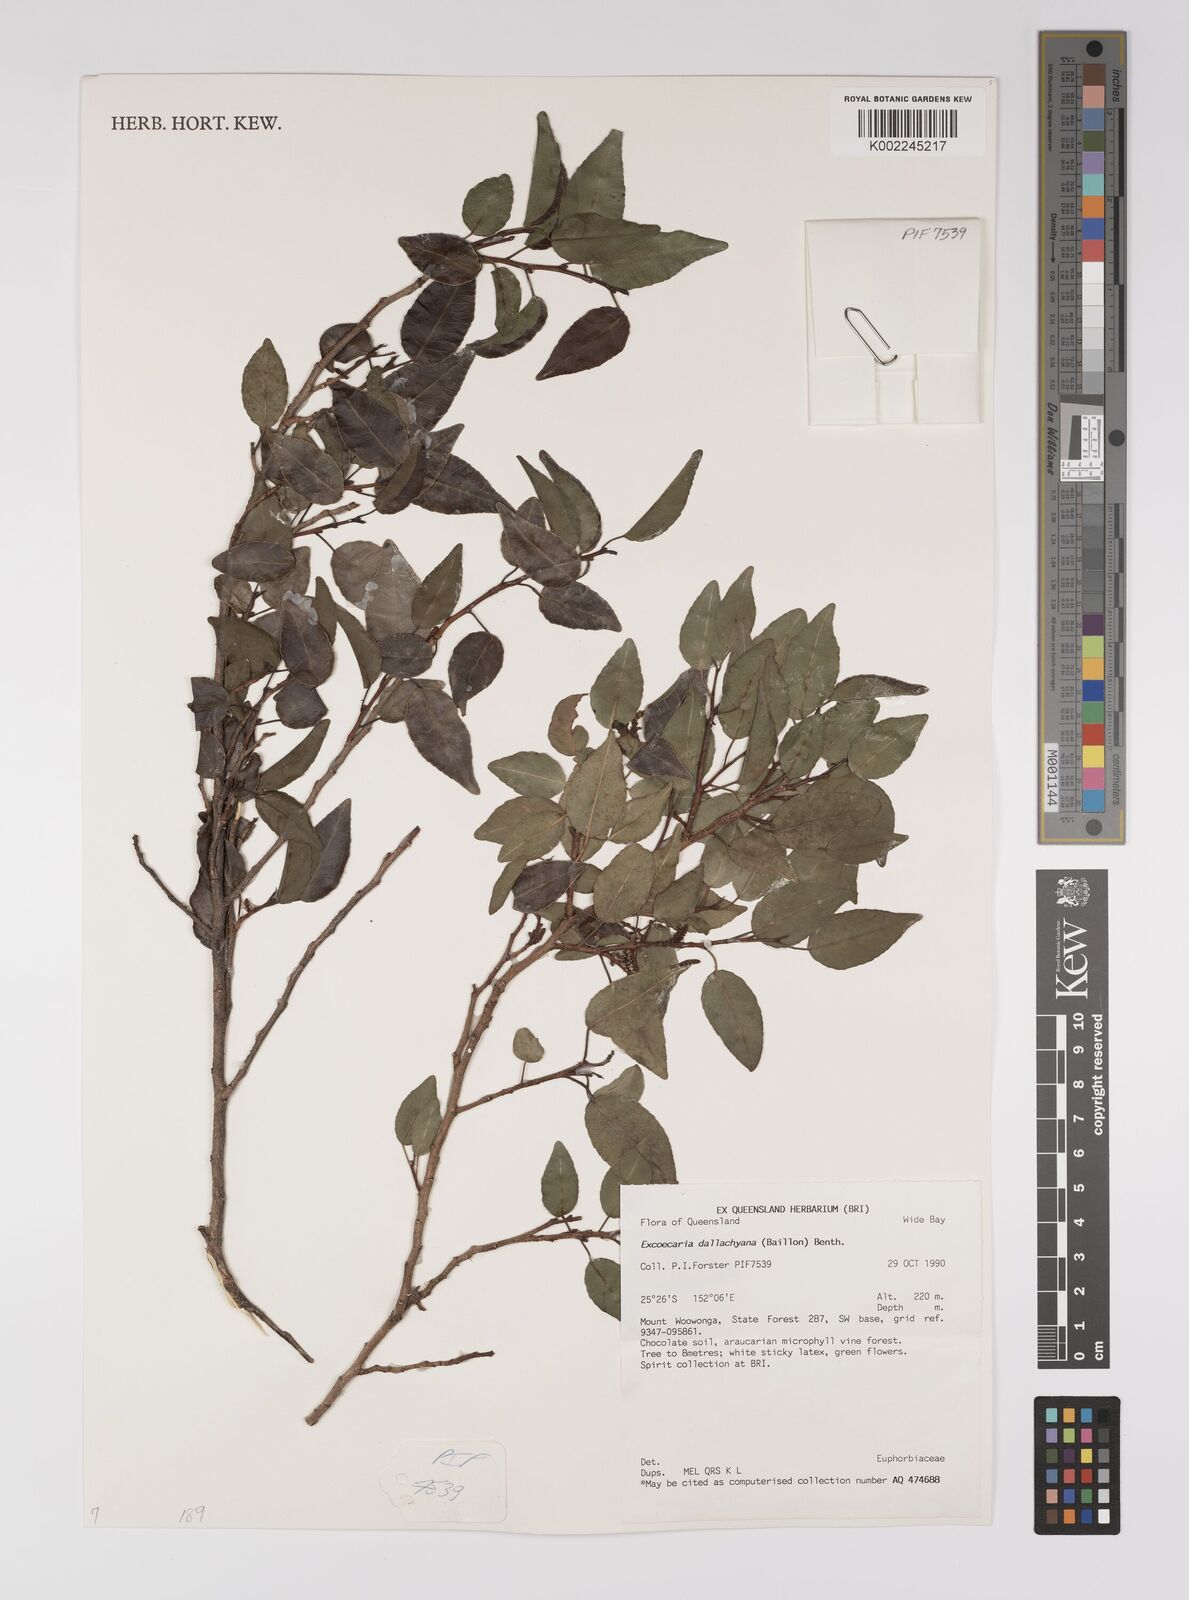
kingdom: Plantae
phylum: Tracheophyta
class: Magnoliopsida
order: Malpighiales
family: Euphorbiaceae
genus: Excoecaria
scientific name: Excoecaria dallachyana
